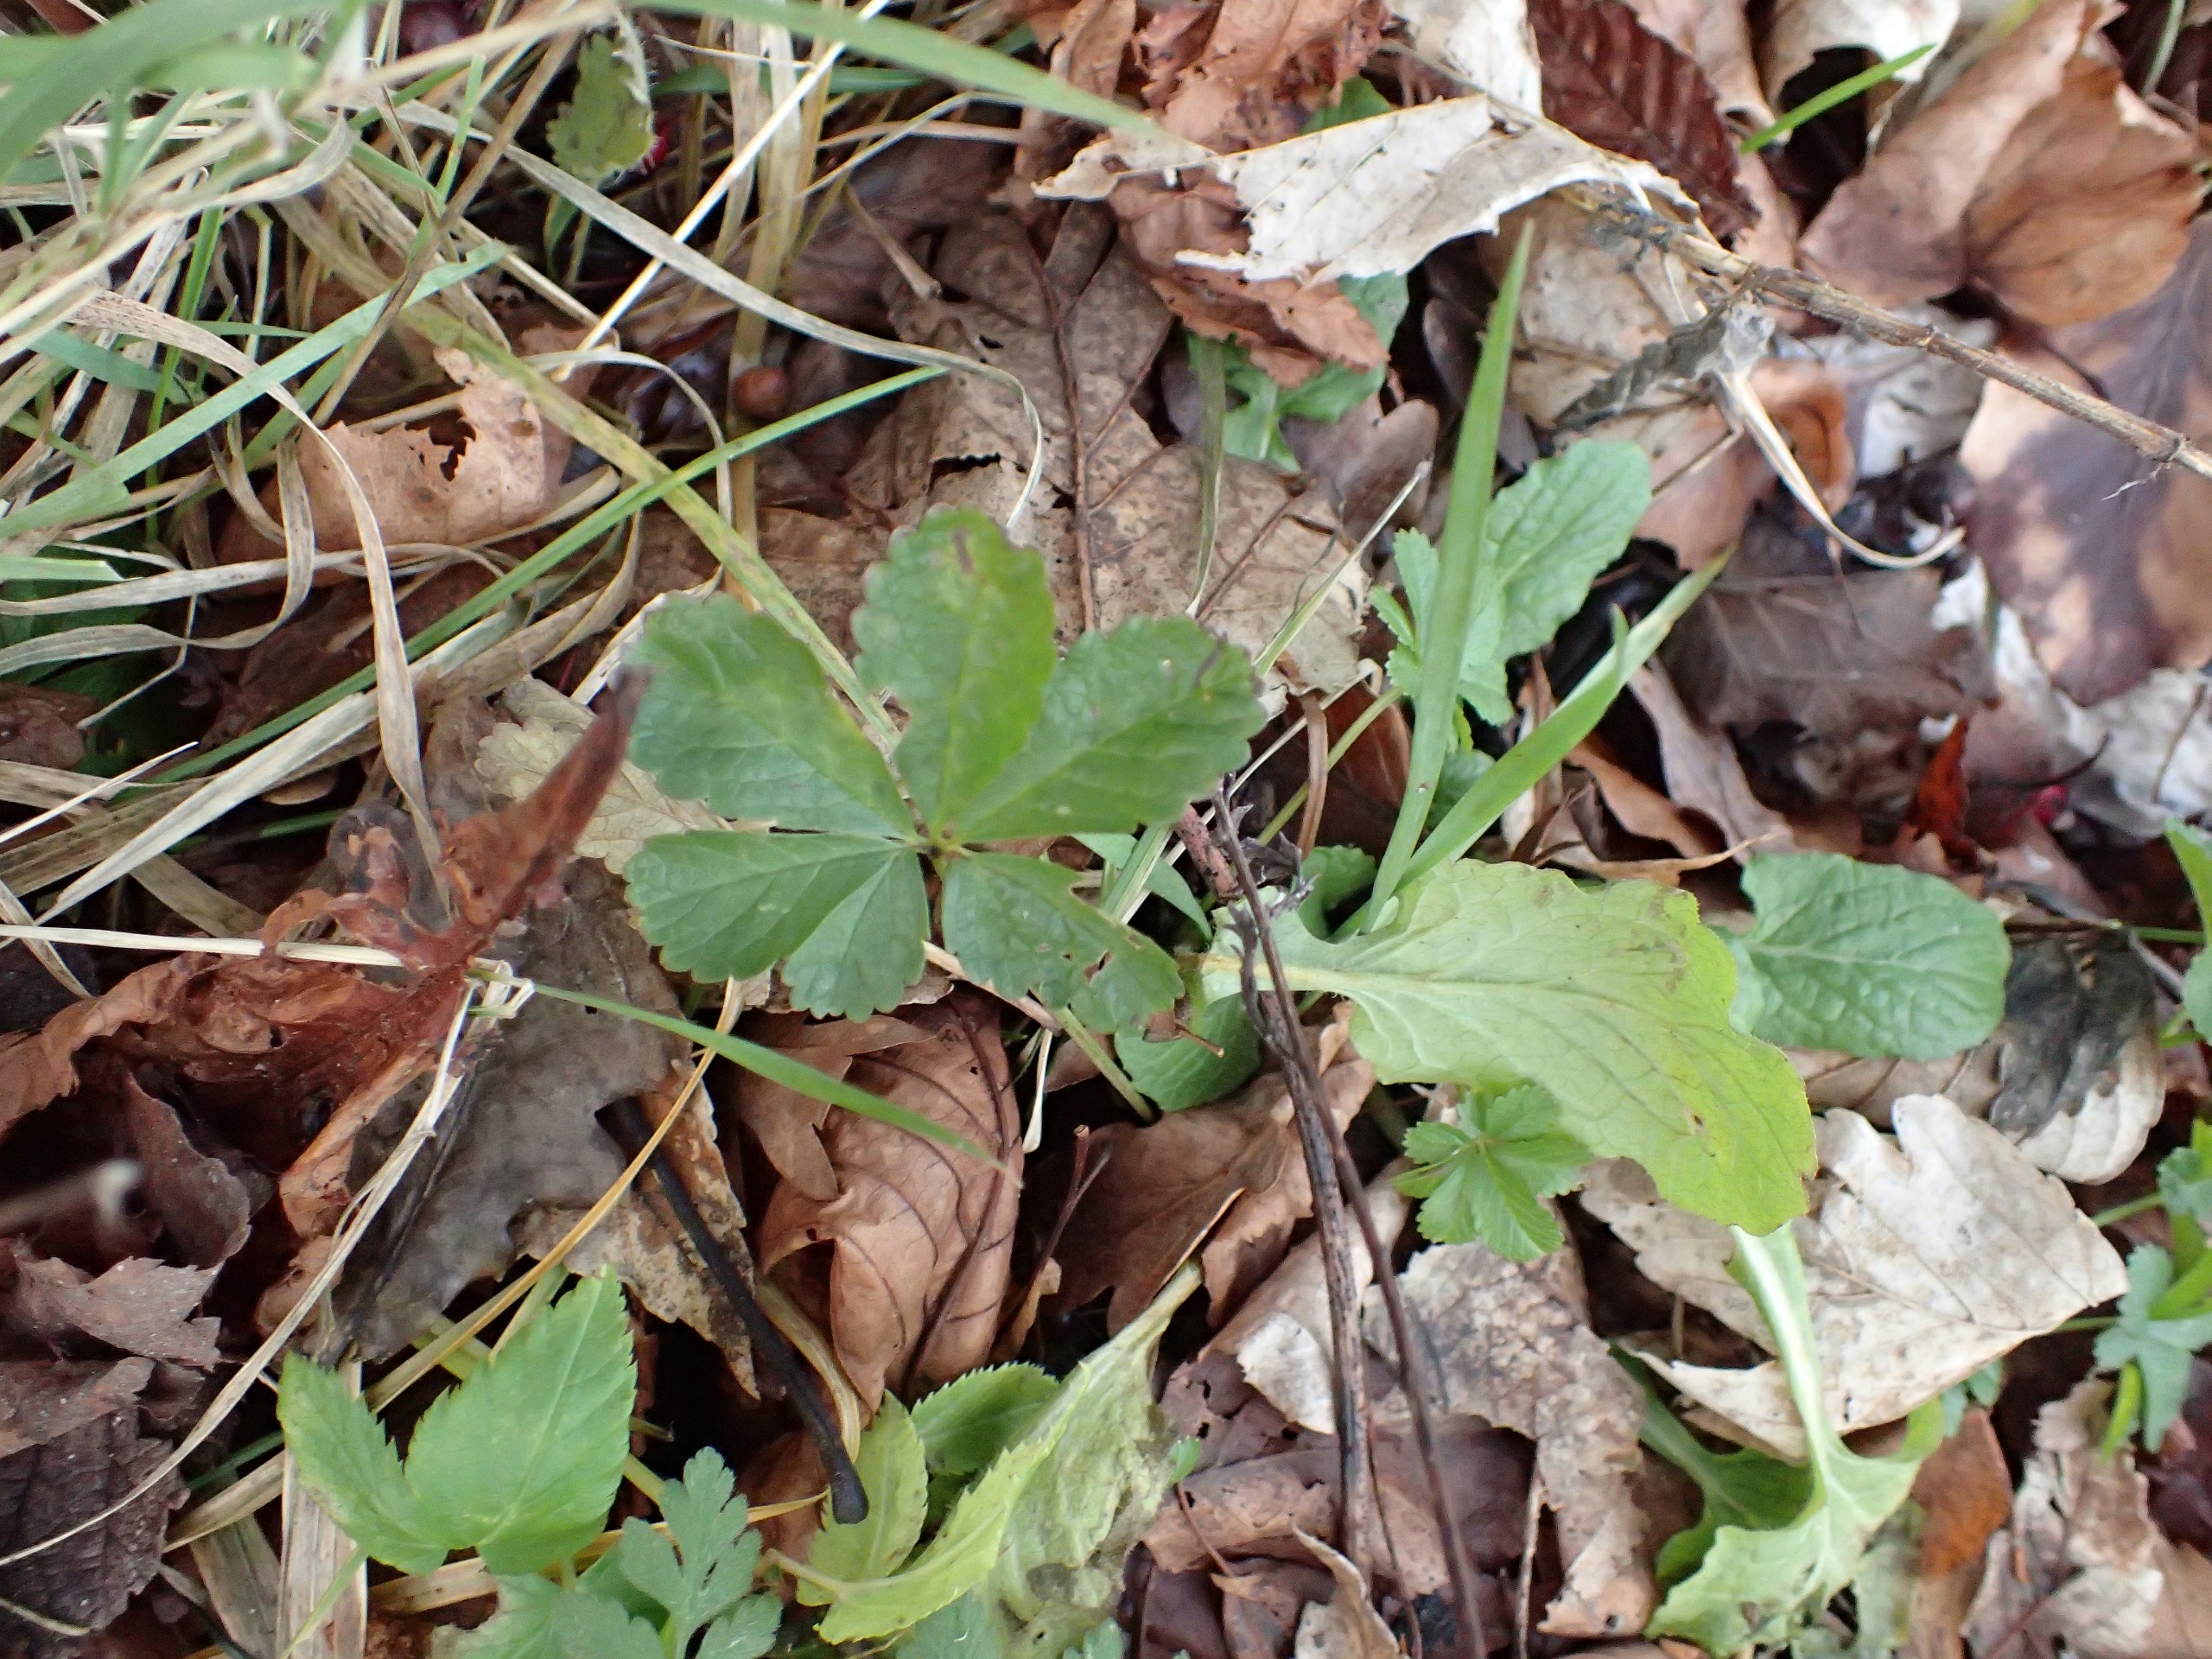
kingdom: Plantae
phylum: Tracheophyta
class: Magnoliopsida
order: Rosales
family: Rosaceae
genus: Potentilla
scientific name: Potentilla reptans
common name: Krybende potentil
